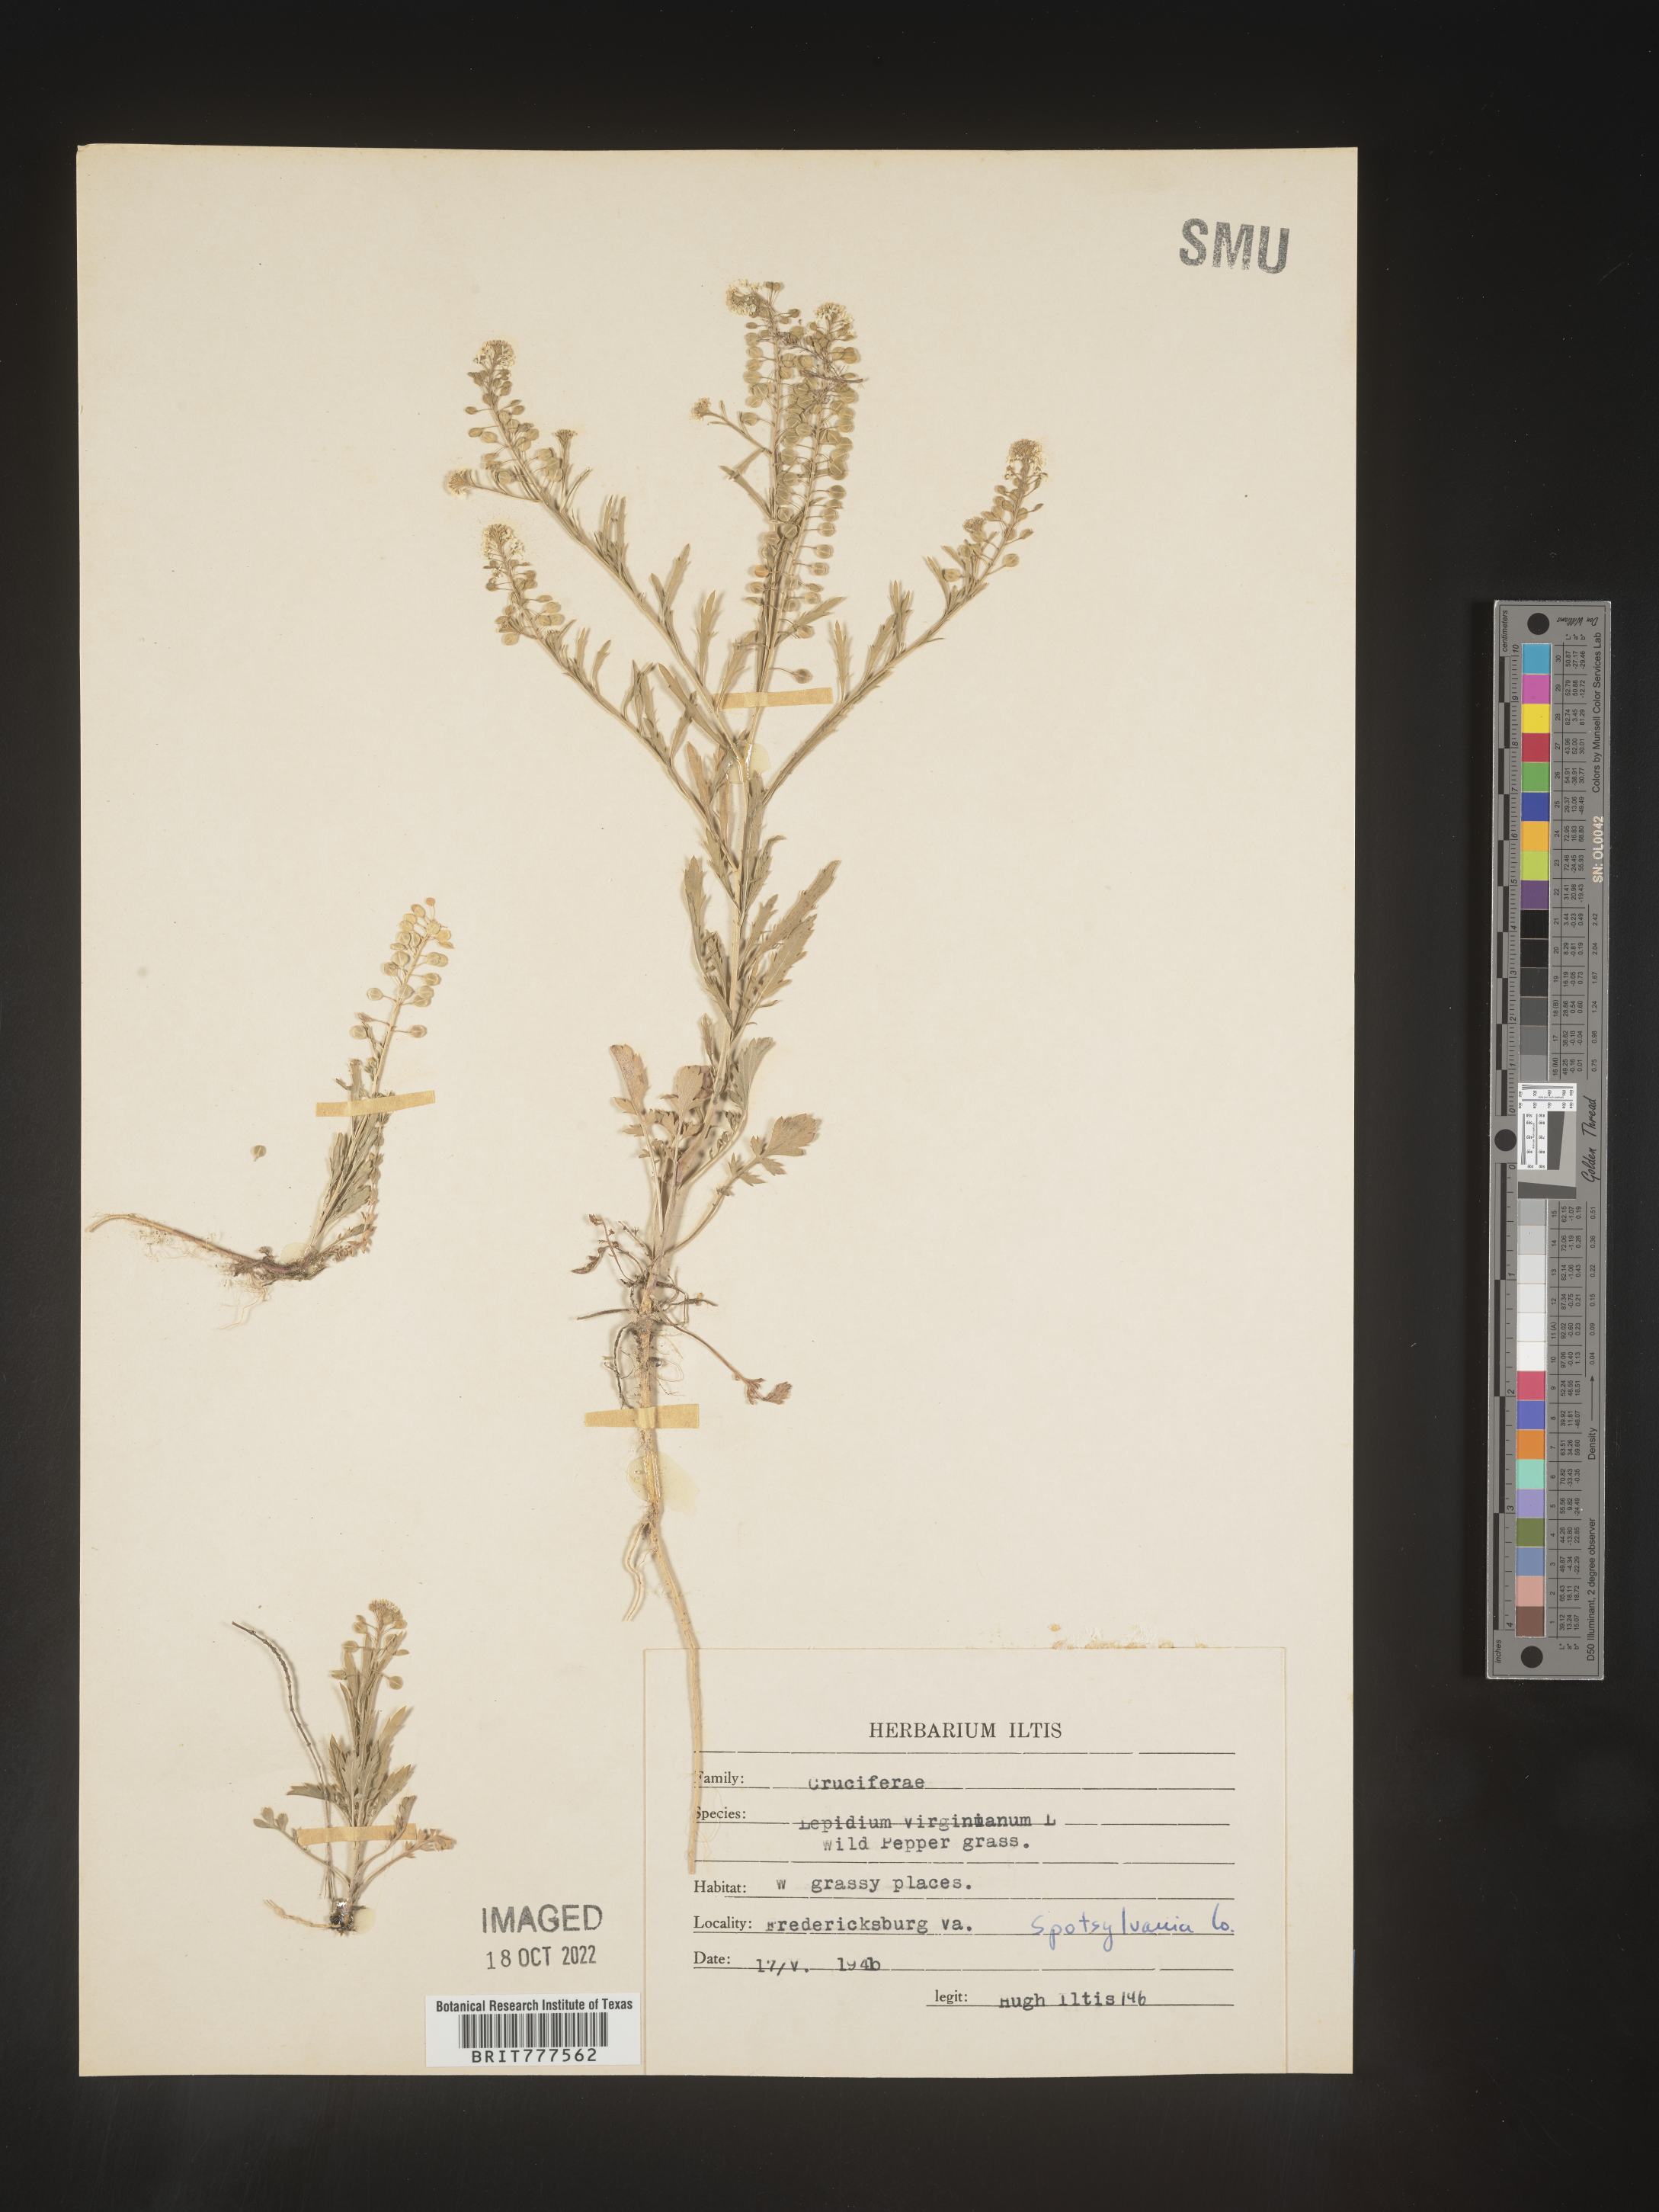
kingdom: Plantae
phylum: Tracheophyta
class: Magnoliopsida
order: Brassicales
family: Brassicaceae
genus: Lepidium
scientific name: Lepidium virginicum
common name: Least pepperwort
